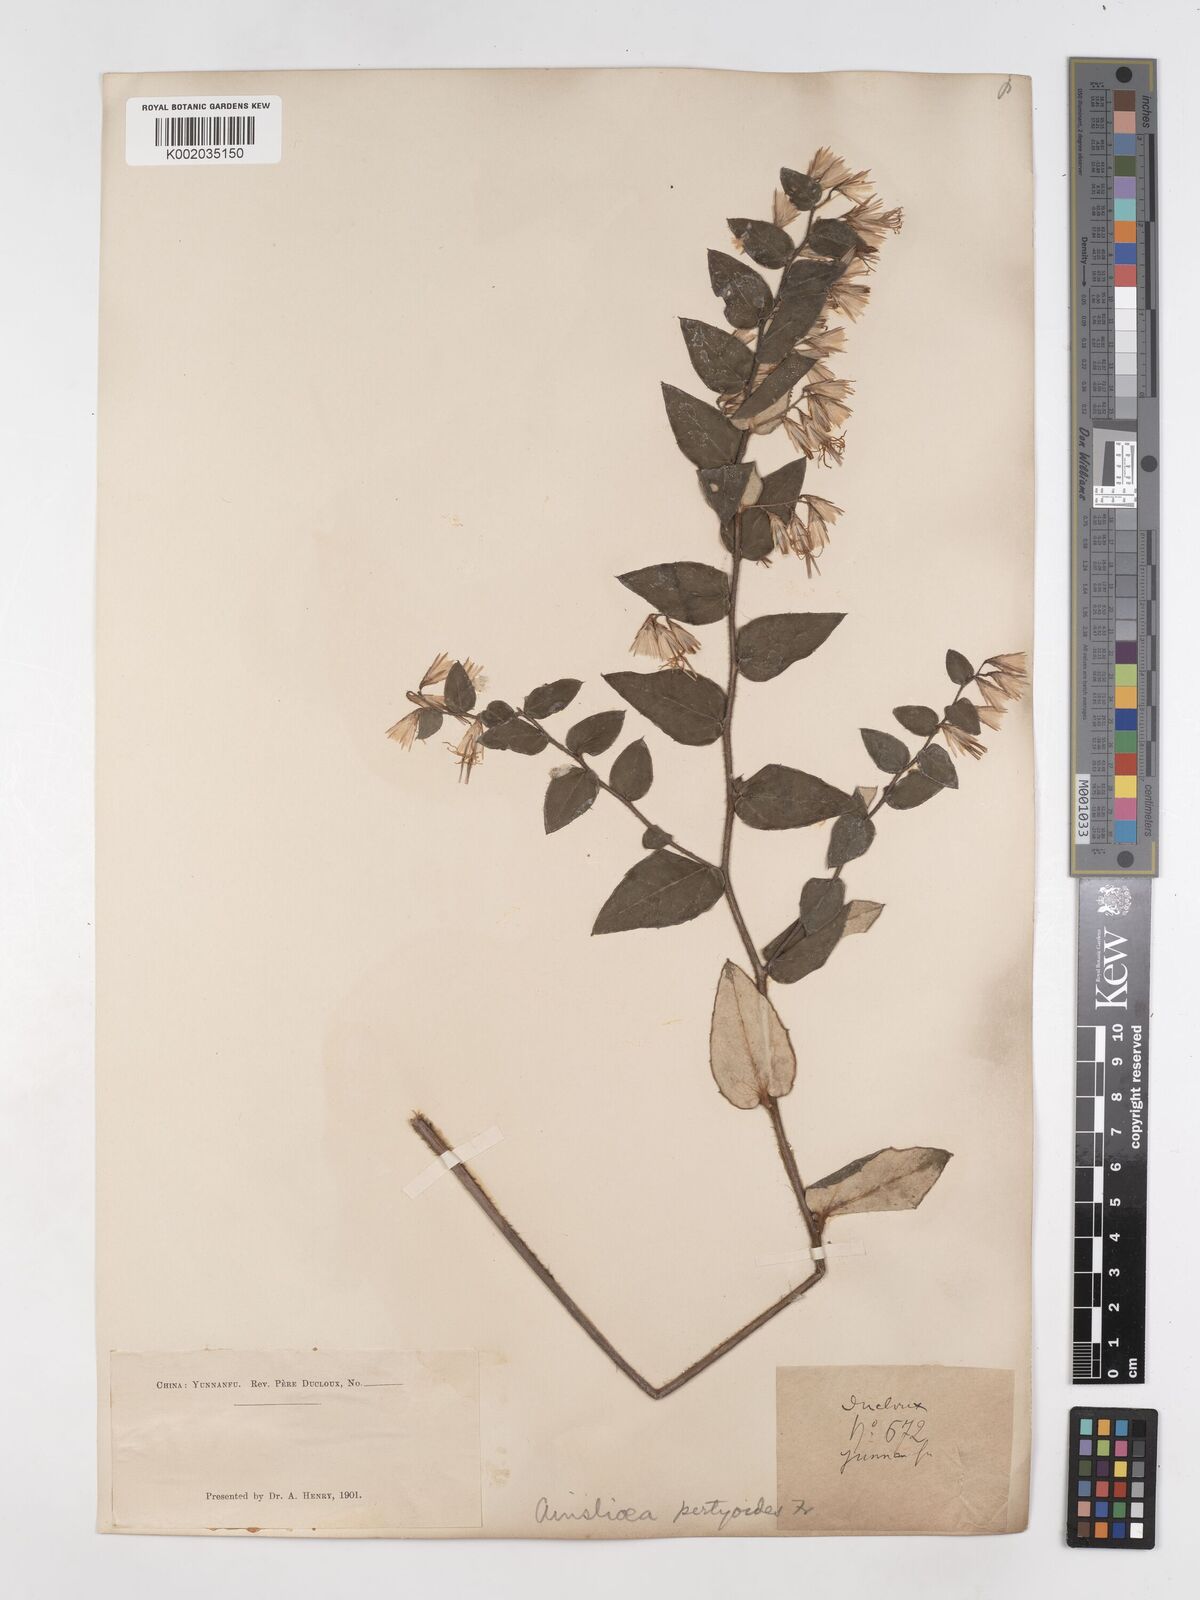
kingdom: Plantae
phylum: Tracheophyta
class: Magnoliopsida
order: Asterales
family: Asteraceae
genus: Ainsliaea
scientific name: Ainsliaea pertyoides
